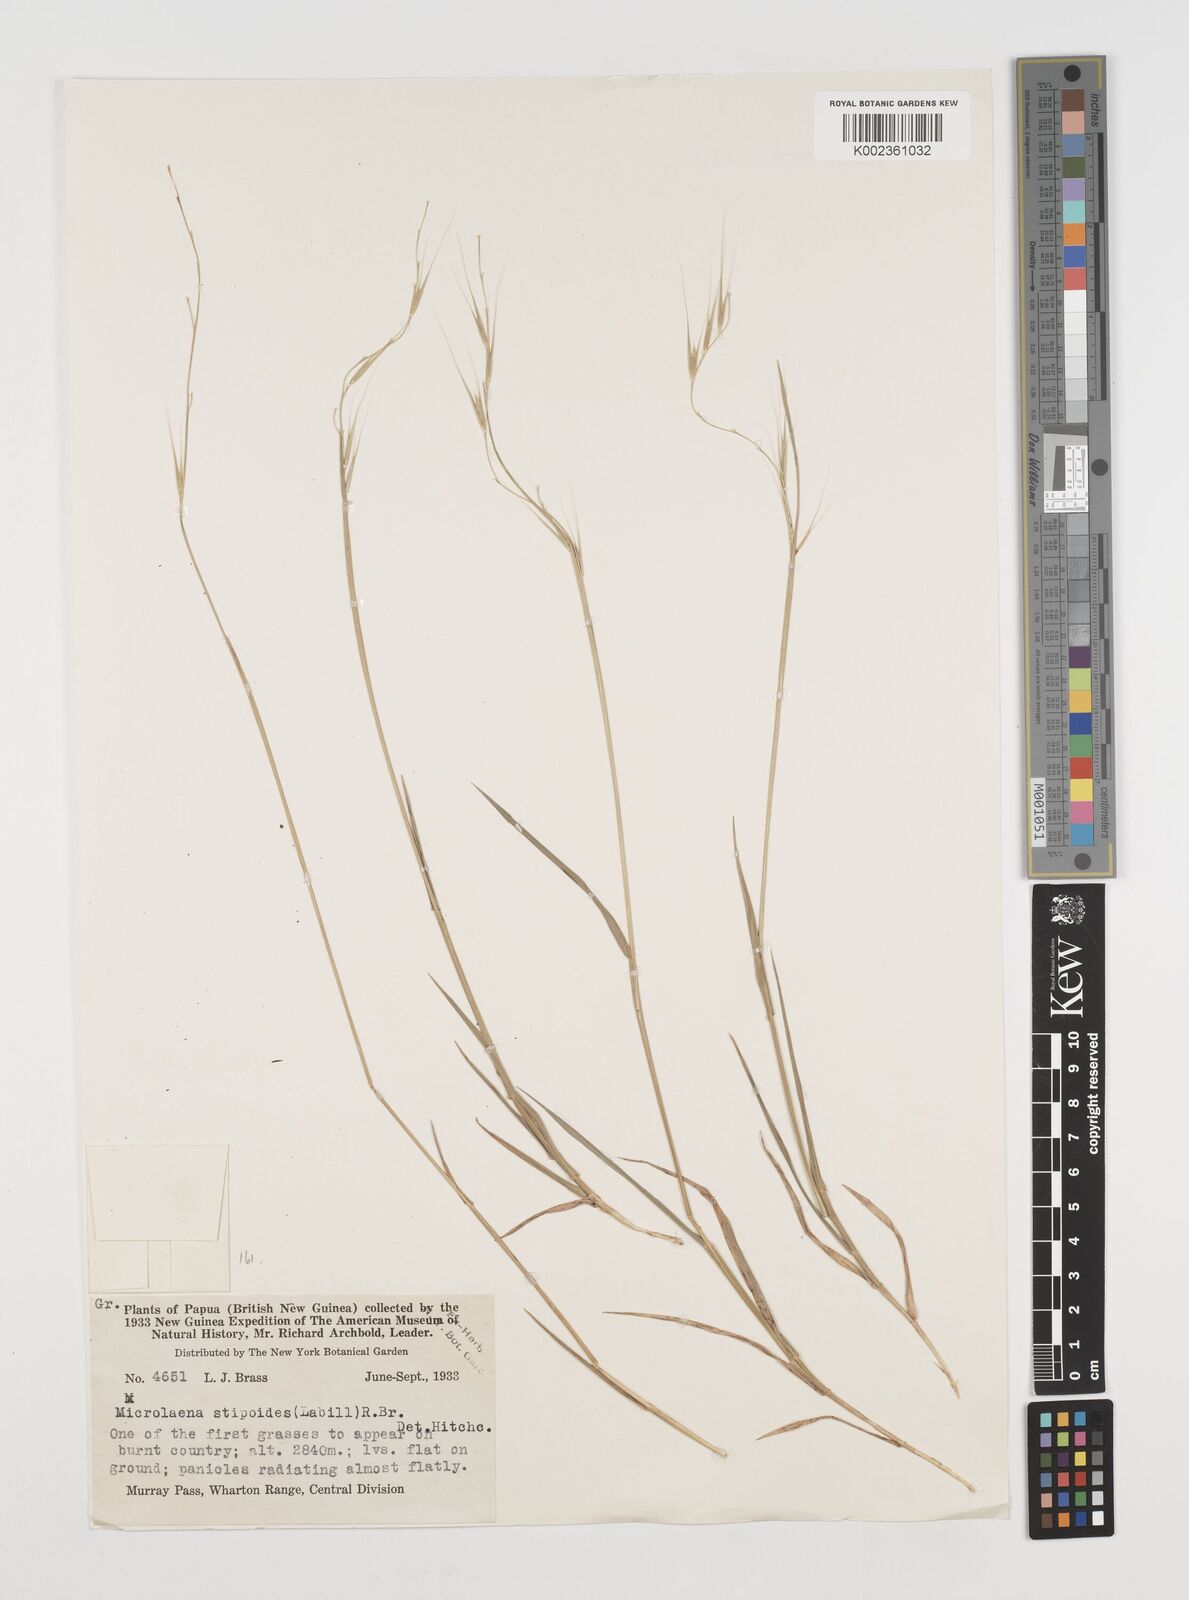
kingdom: Plantae
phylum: Tracheophyta
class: Liliopsida
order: Poales
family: Poaceae
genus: Microlaena
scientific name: Microlaena stipoides
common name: Meadow ricegrass
